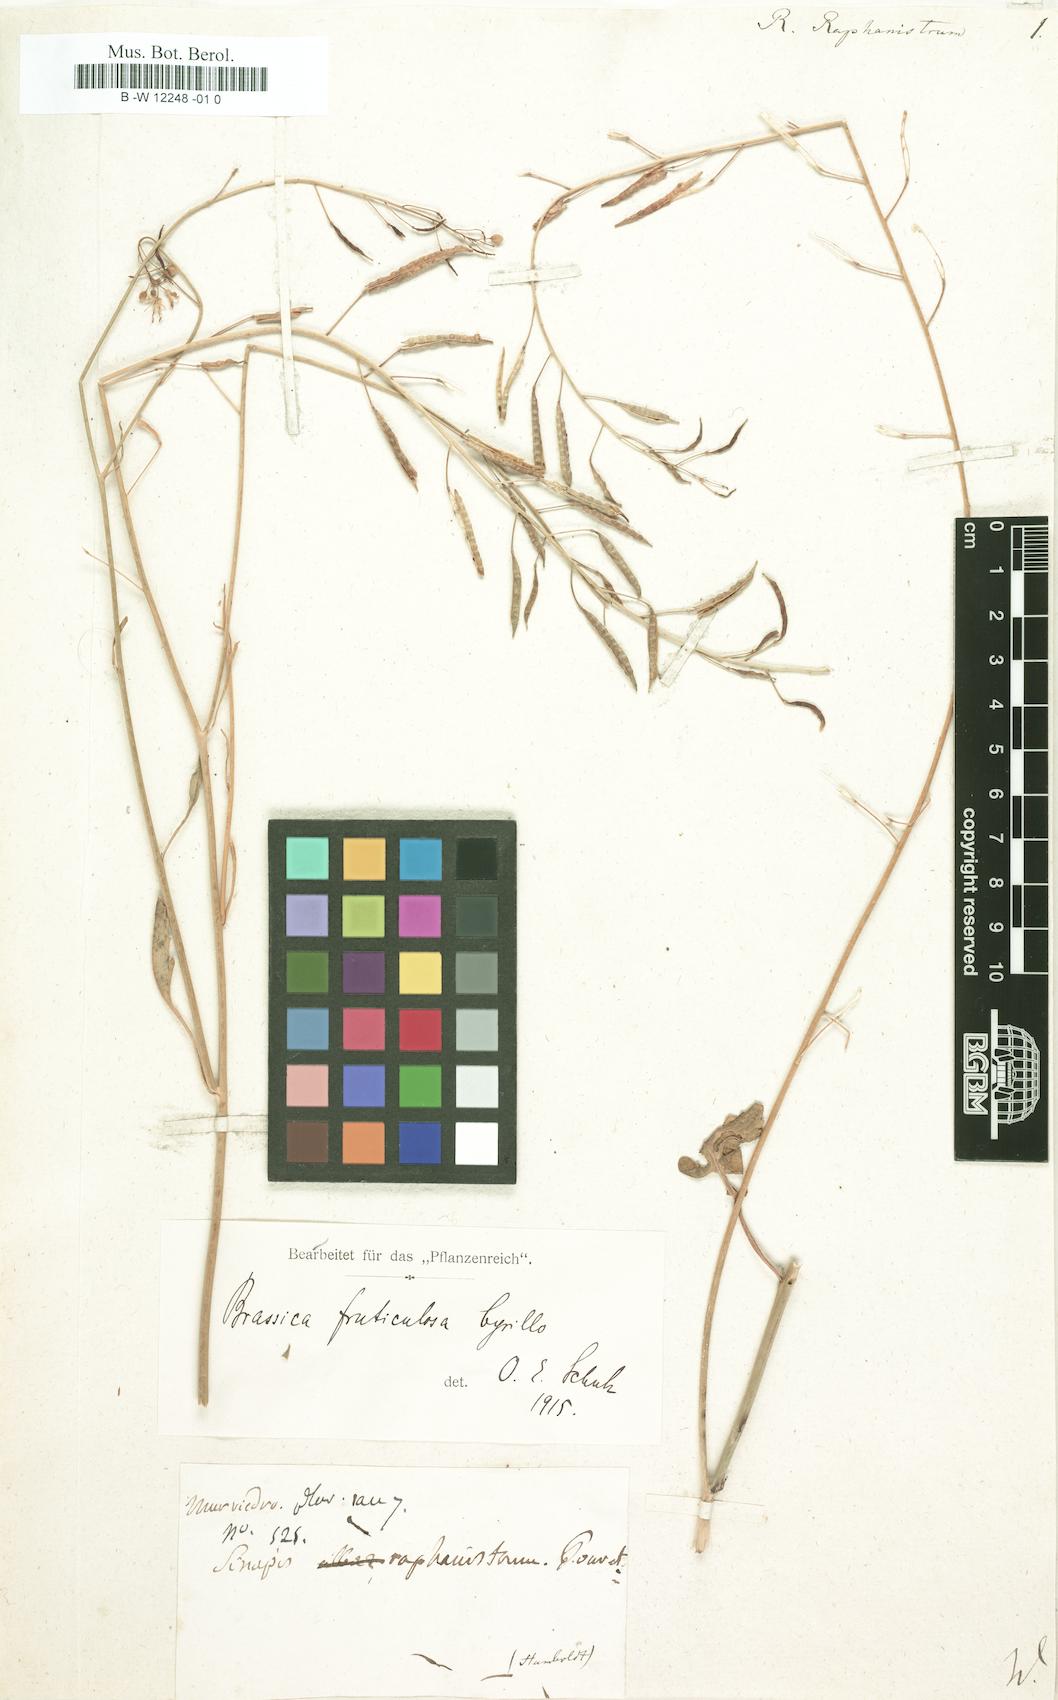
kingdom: Plantae
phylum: Tracheophyta
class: Magnoliopsida
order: Brassicales
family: Brassicaceae
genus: Raphanus
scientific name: Raphanus raphanistrum
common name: Wild radish
